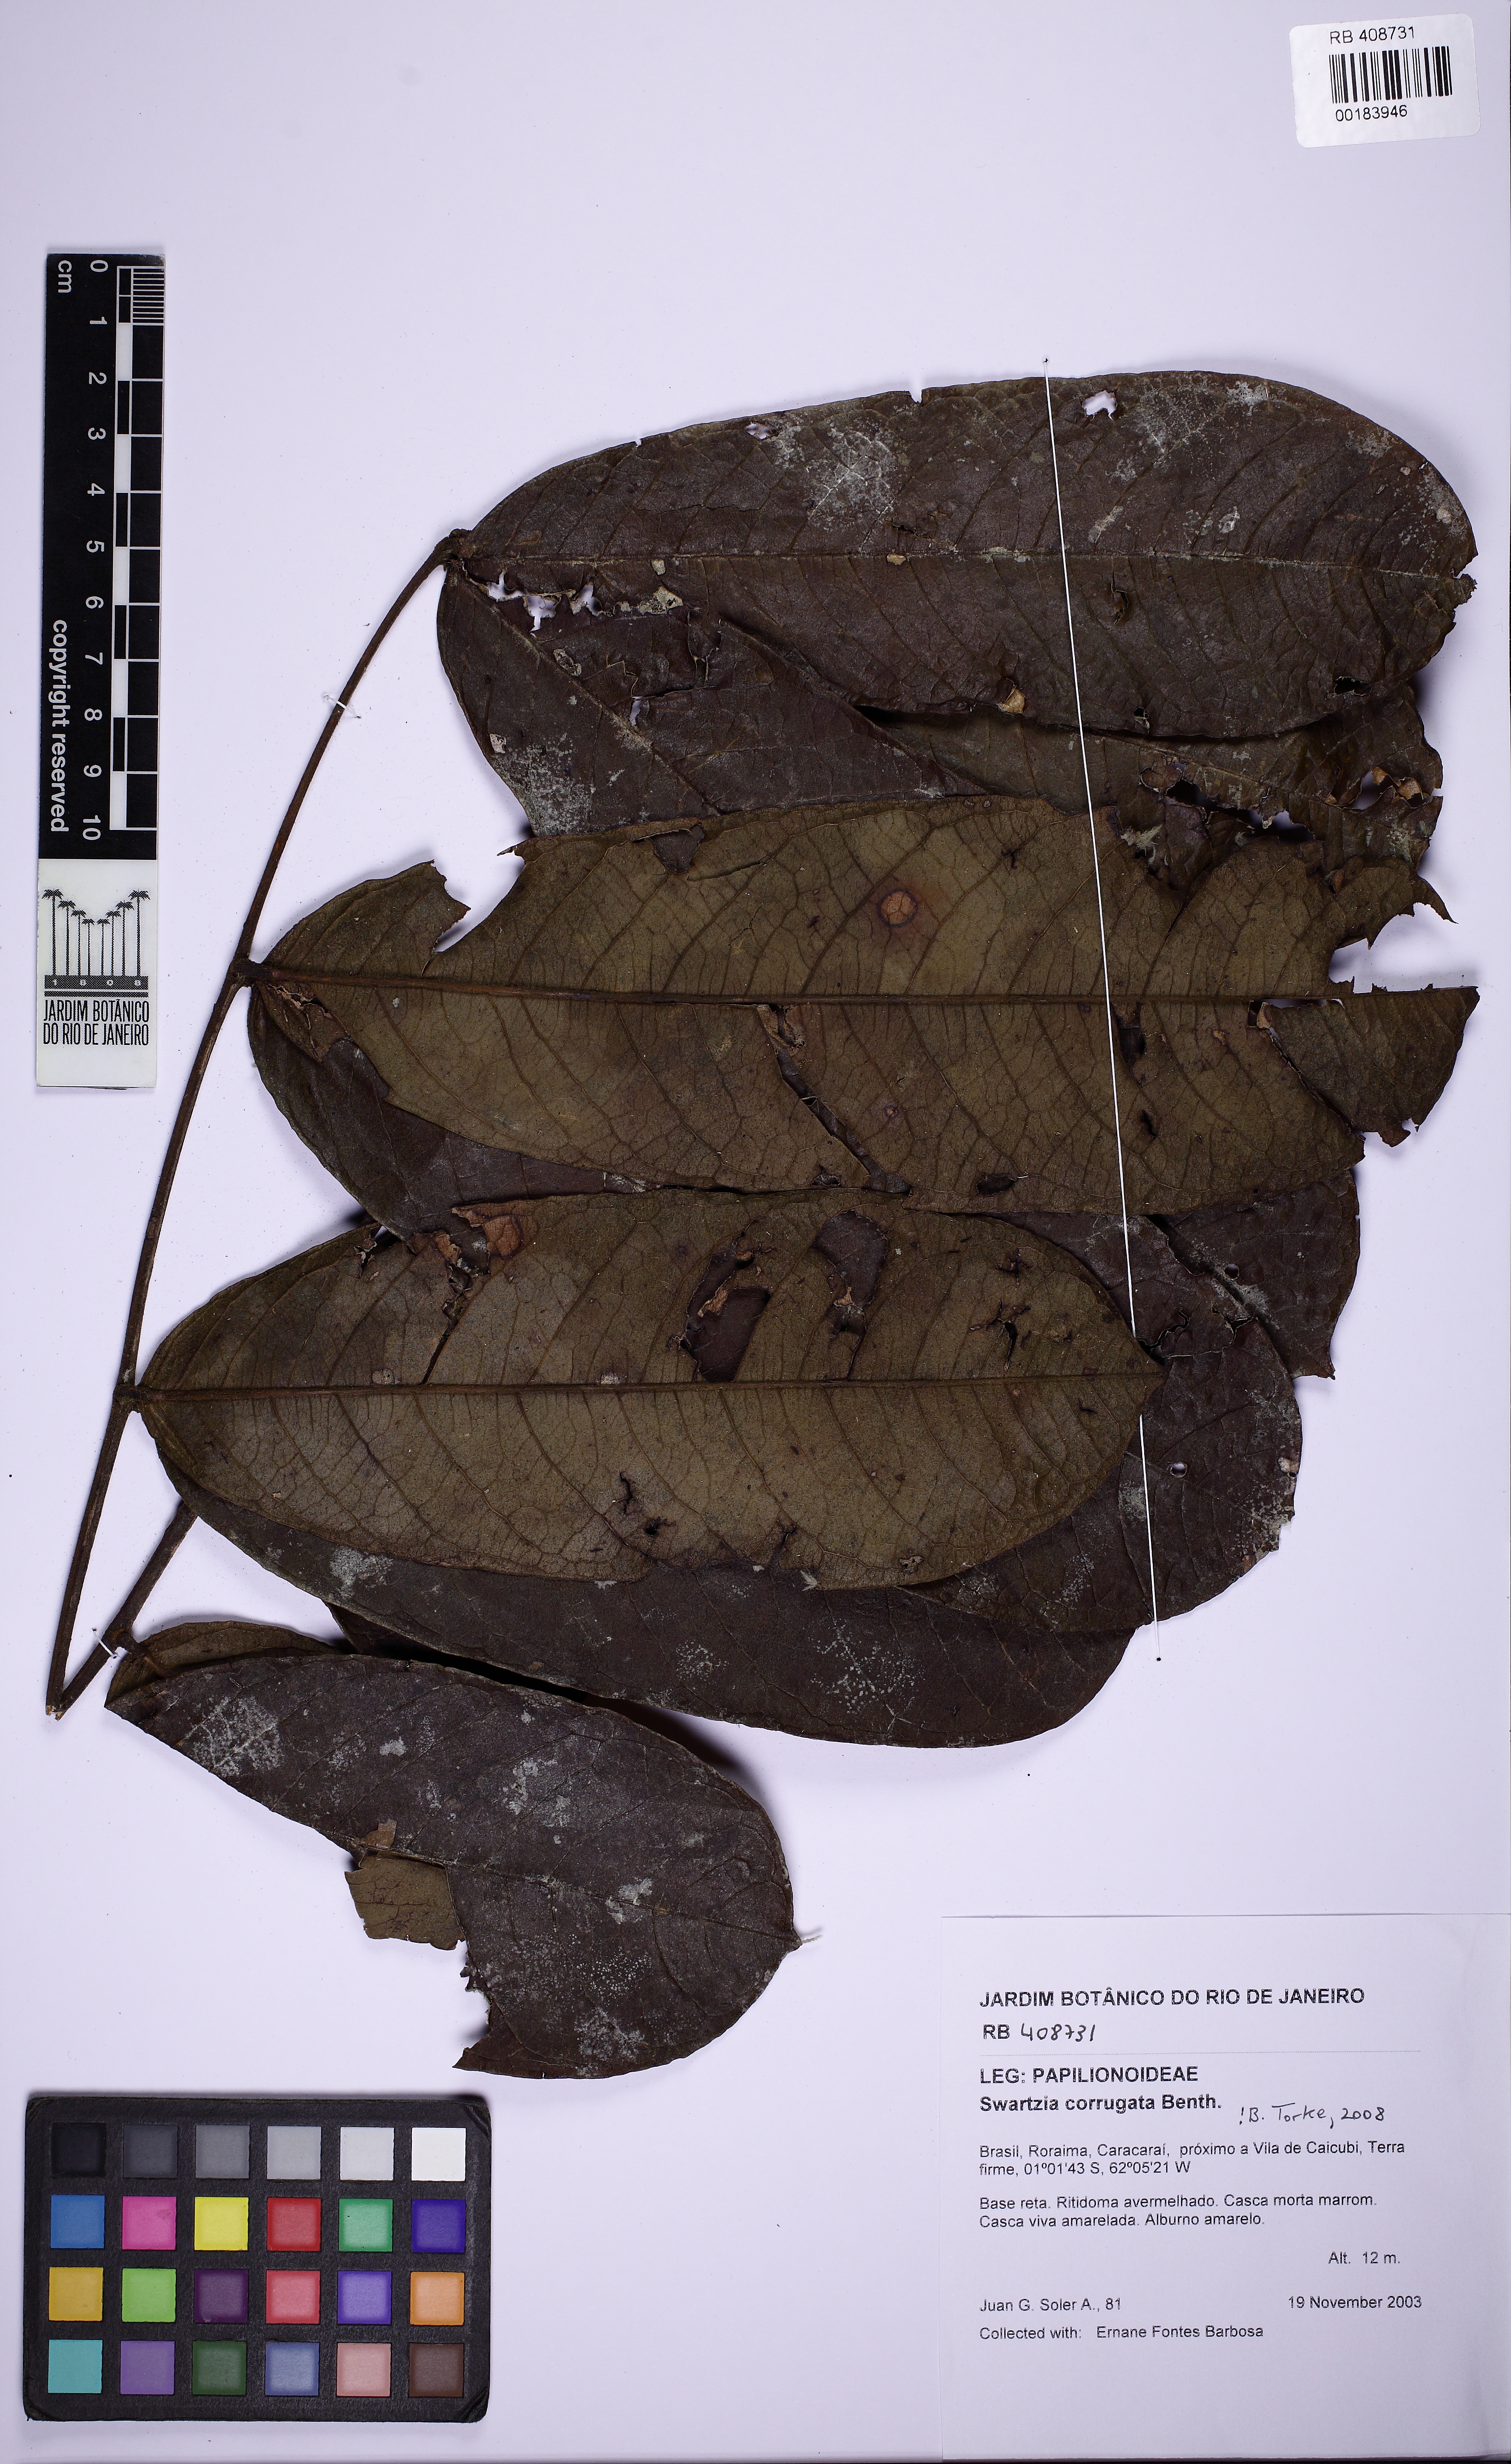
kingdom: Plantae
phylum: Tracheophyta
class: Magnoliopsida
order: Fabales
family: Fabaceae
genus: Swartzia
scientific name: Swartzia corrugata
